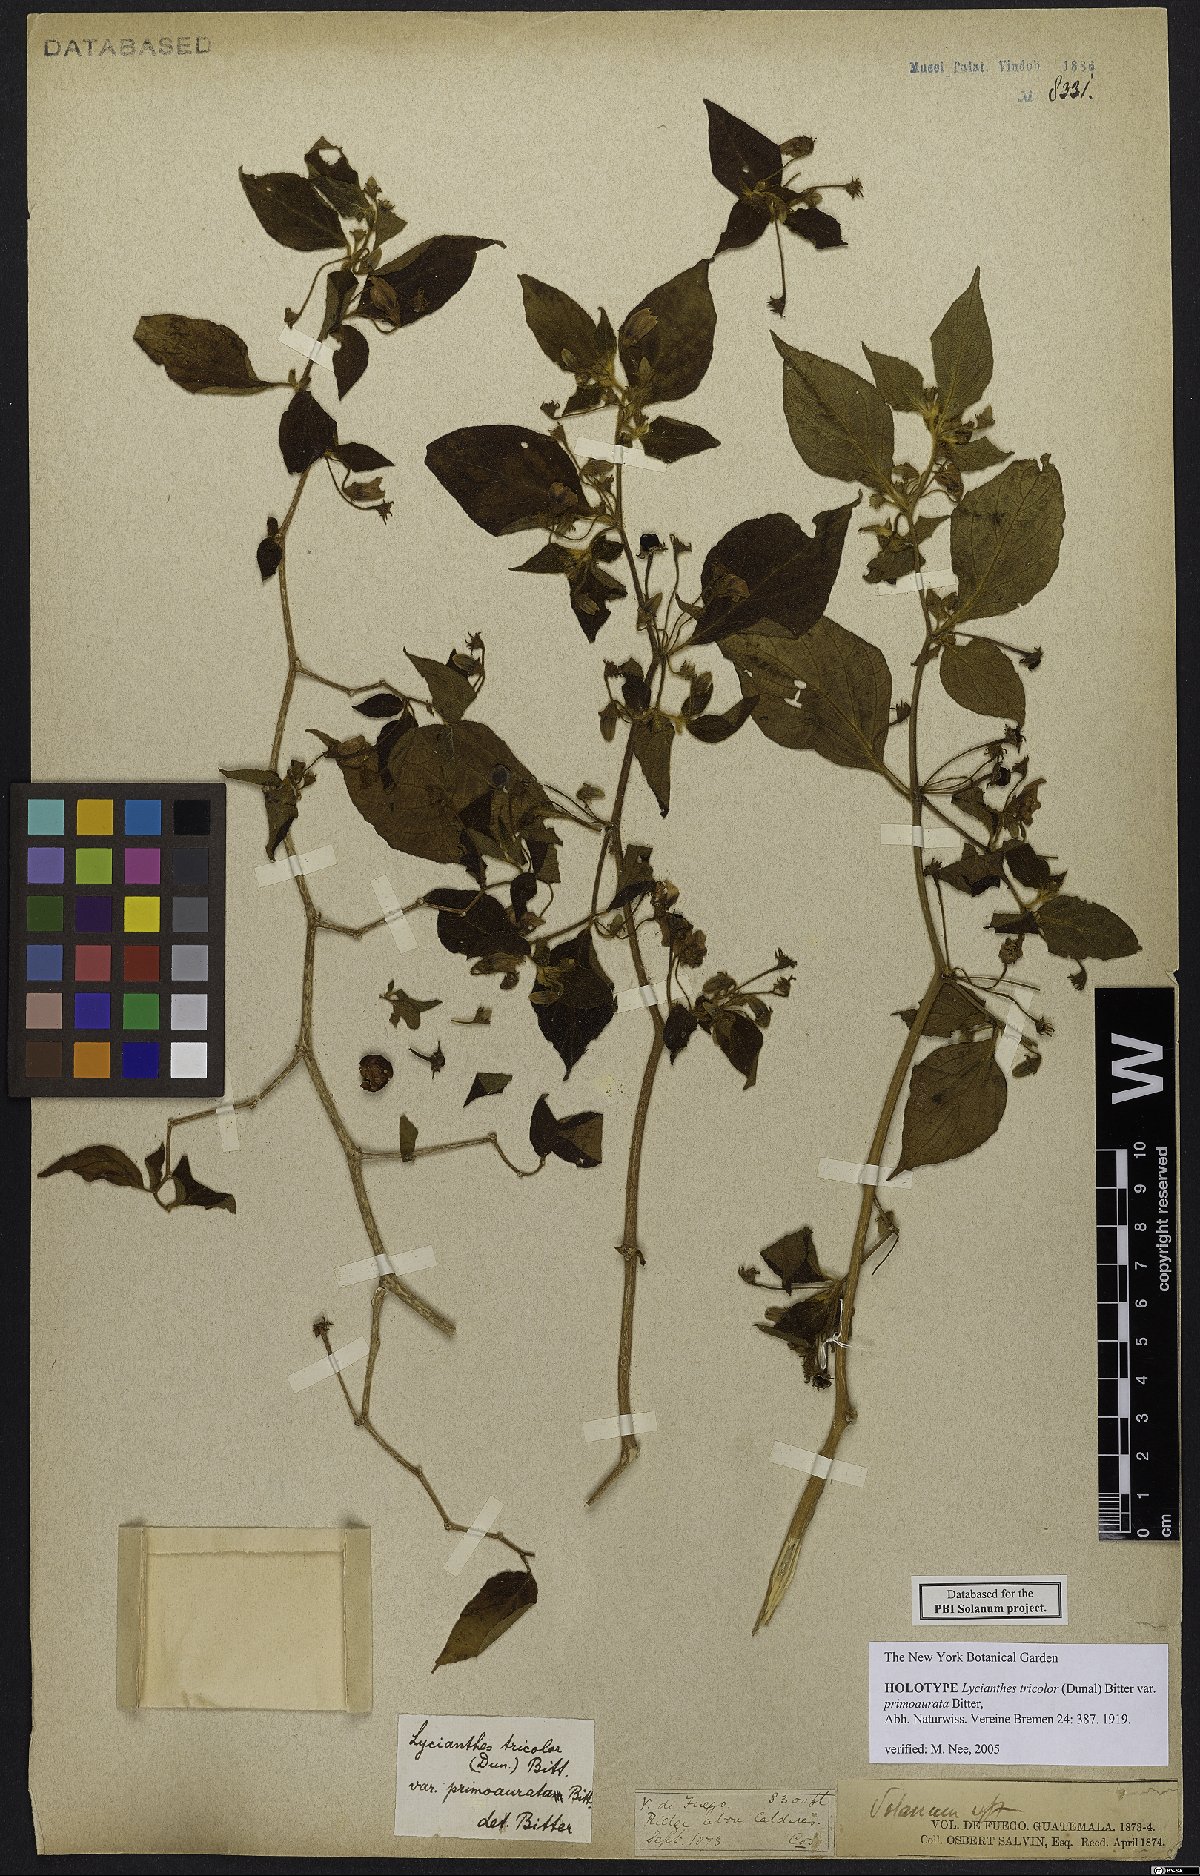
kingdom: Plantae
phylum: Tracheophyta
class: Magnoliopsida
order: Solanales
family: Solanaceae
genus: Lycianthes
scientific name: Lycianthes tricolor
